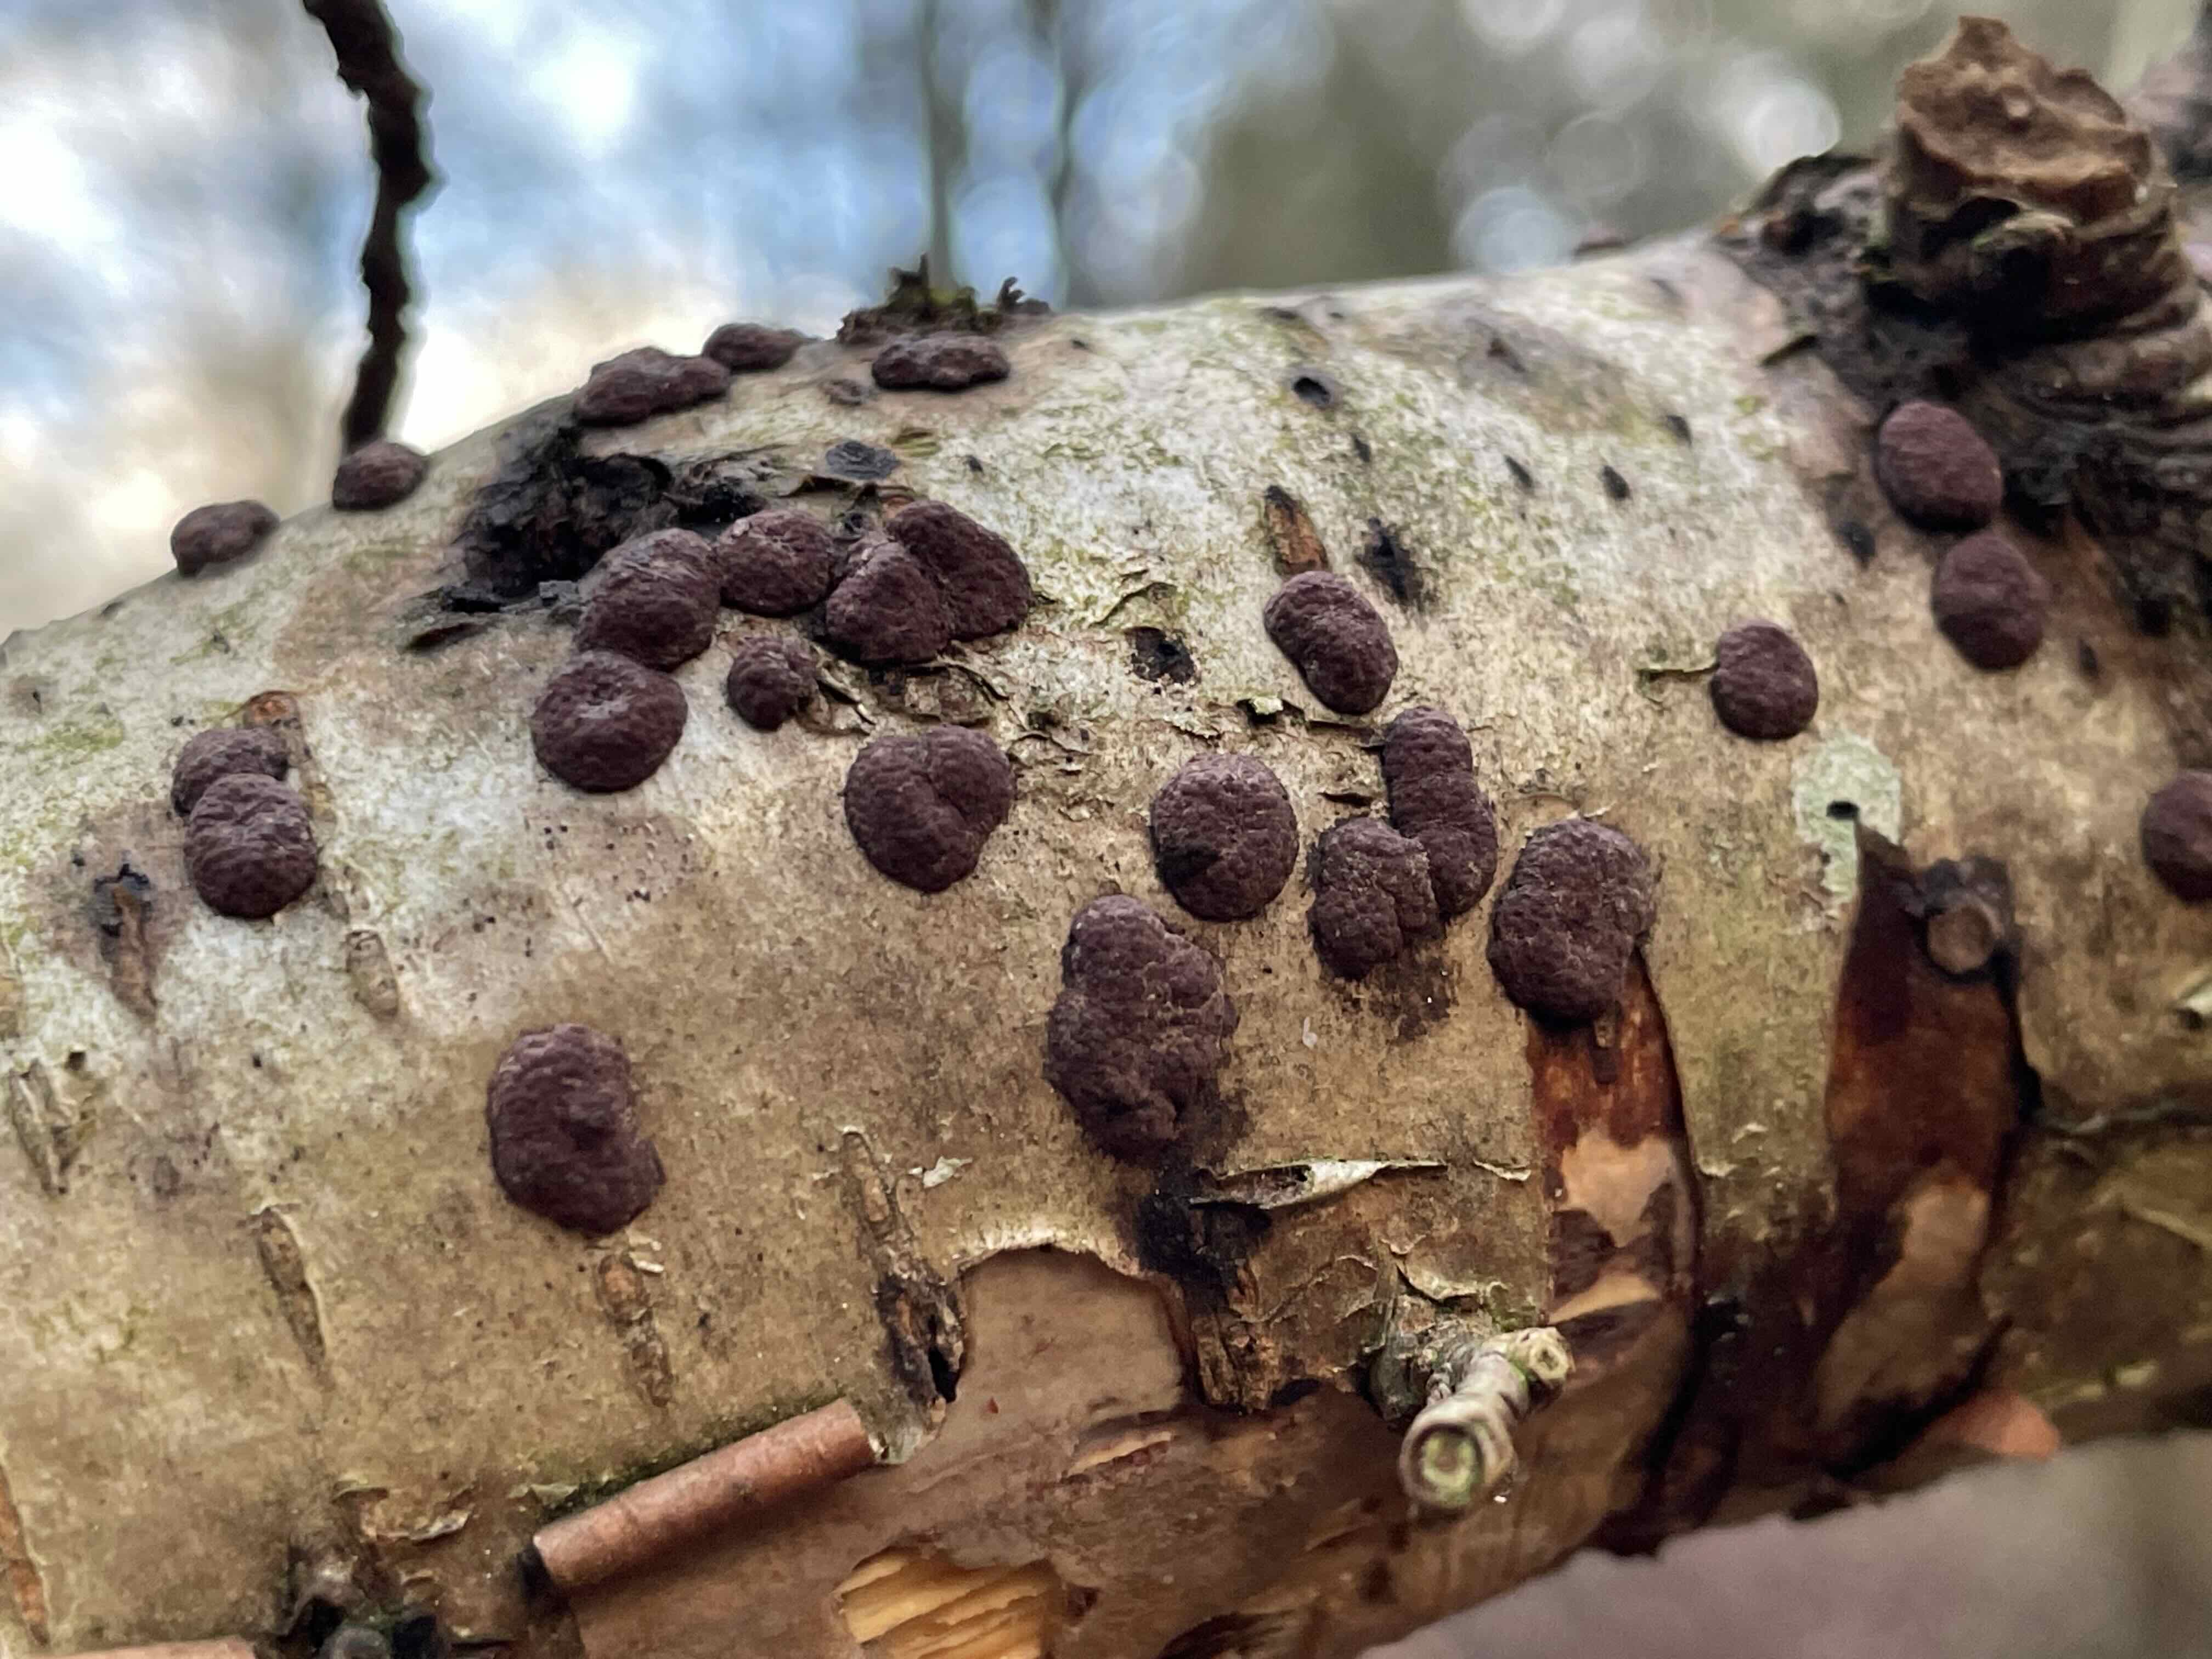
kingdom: Fungi
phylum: Ascomycota
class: Sordariomycetes
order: Xylariales
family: Hypoxylaceae
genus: Hypoxylon
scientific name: Hypoxylon
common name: kulbær
